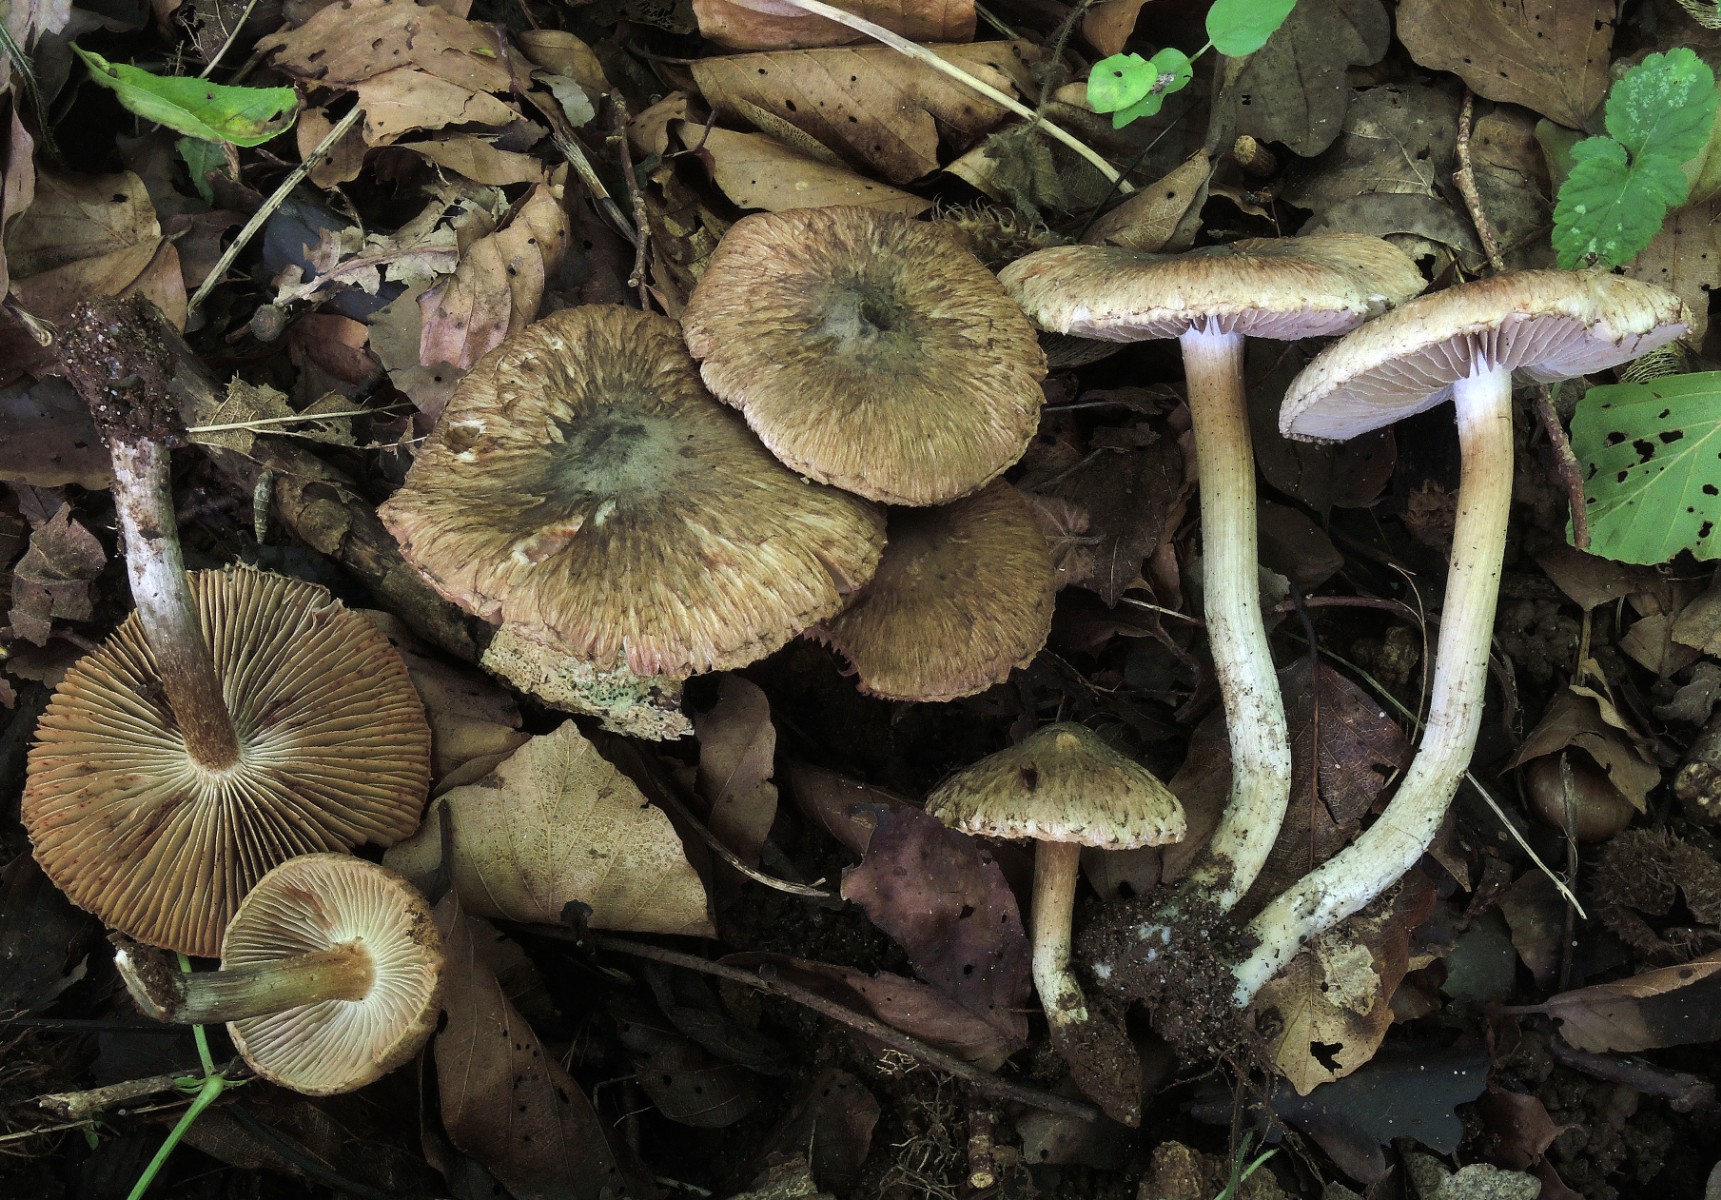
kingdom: Fungi
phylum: Basidiomycota
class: Agaricomycetes
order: Agaricales
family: Inocybaceae
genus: Inocybe
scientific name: Inocybe corydalina
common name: grønpuklet trævlhat
